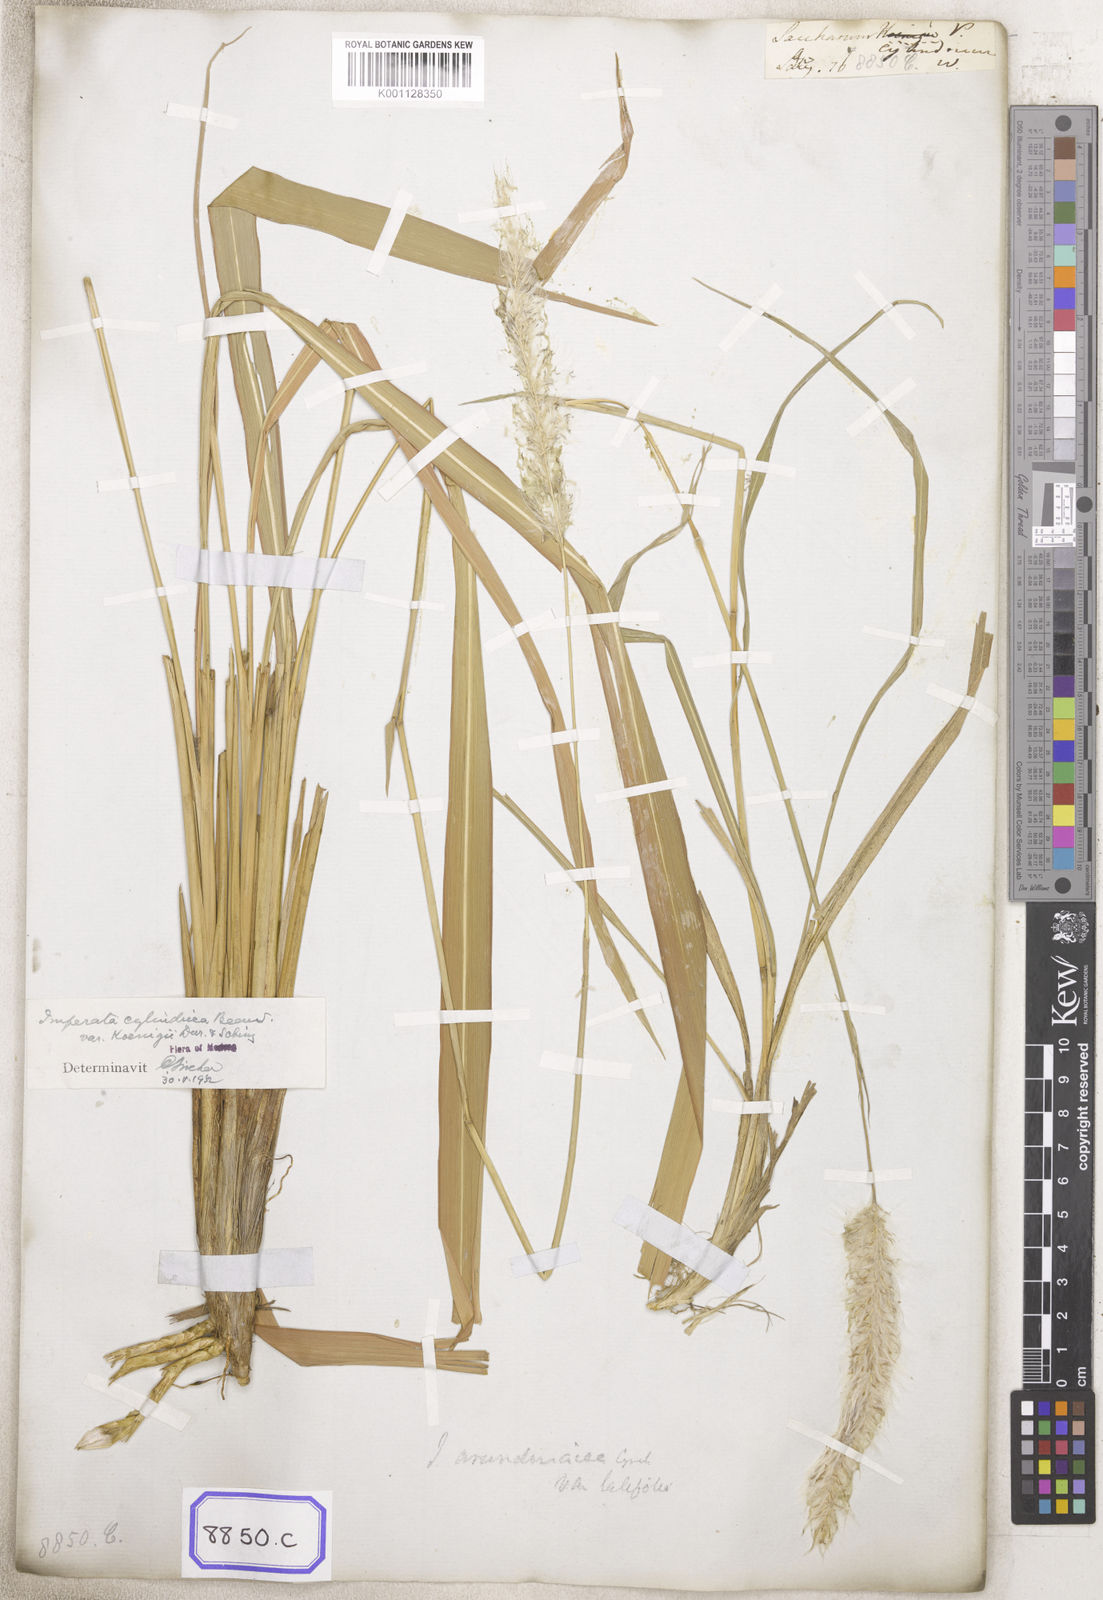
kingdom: Plantae
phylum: Tracheophyta
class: Liliopsida
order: Poales
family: Poaceae
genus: Imperata
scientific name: Imperata cylindrica
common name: Cogongrass
